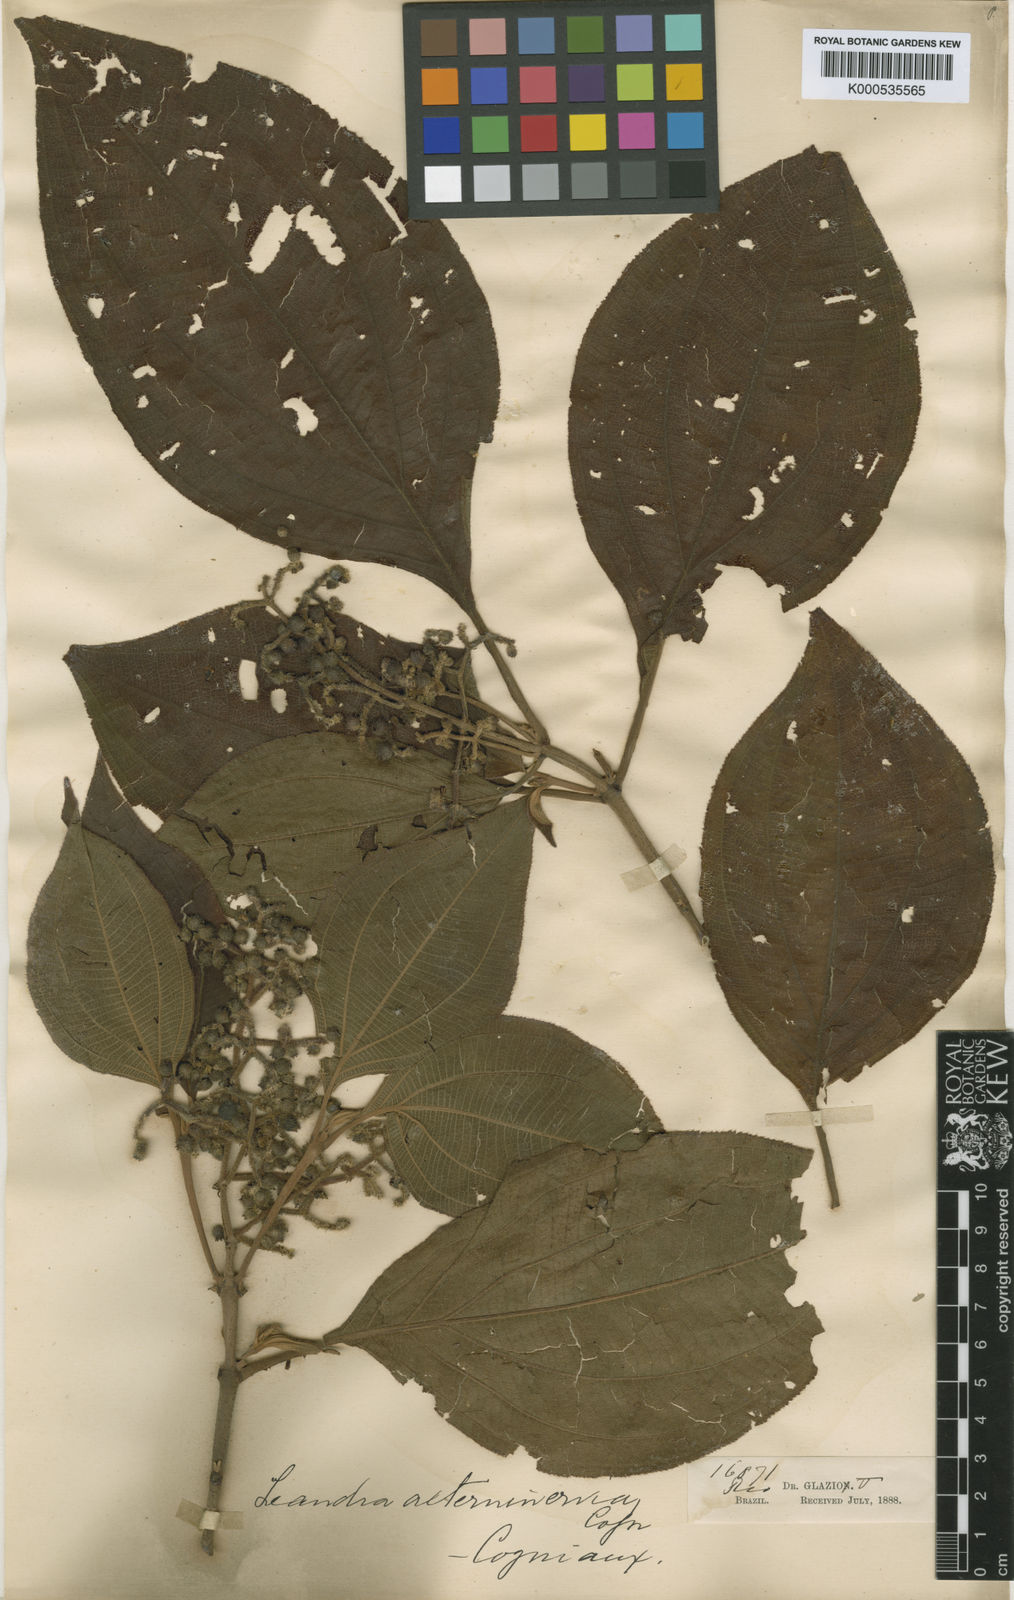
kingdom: Plantae
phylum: Tracheophyta
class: Magnoliopsida
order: Myrtales
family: Melastomataceae
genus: Miconia
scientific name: Miconia alterninervia
